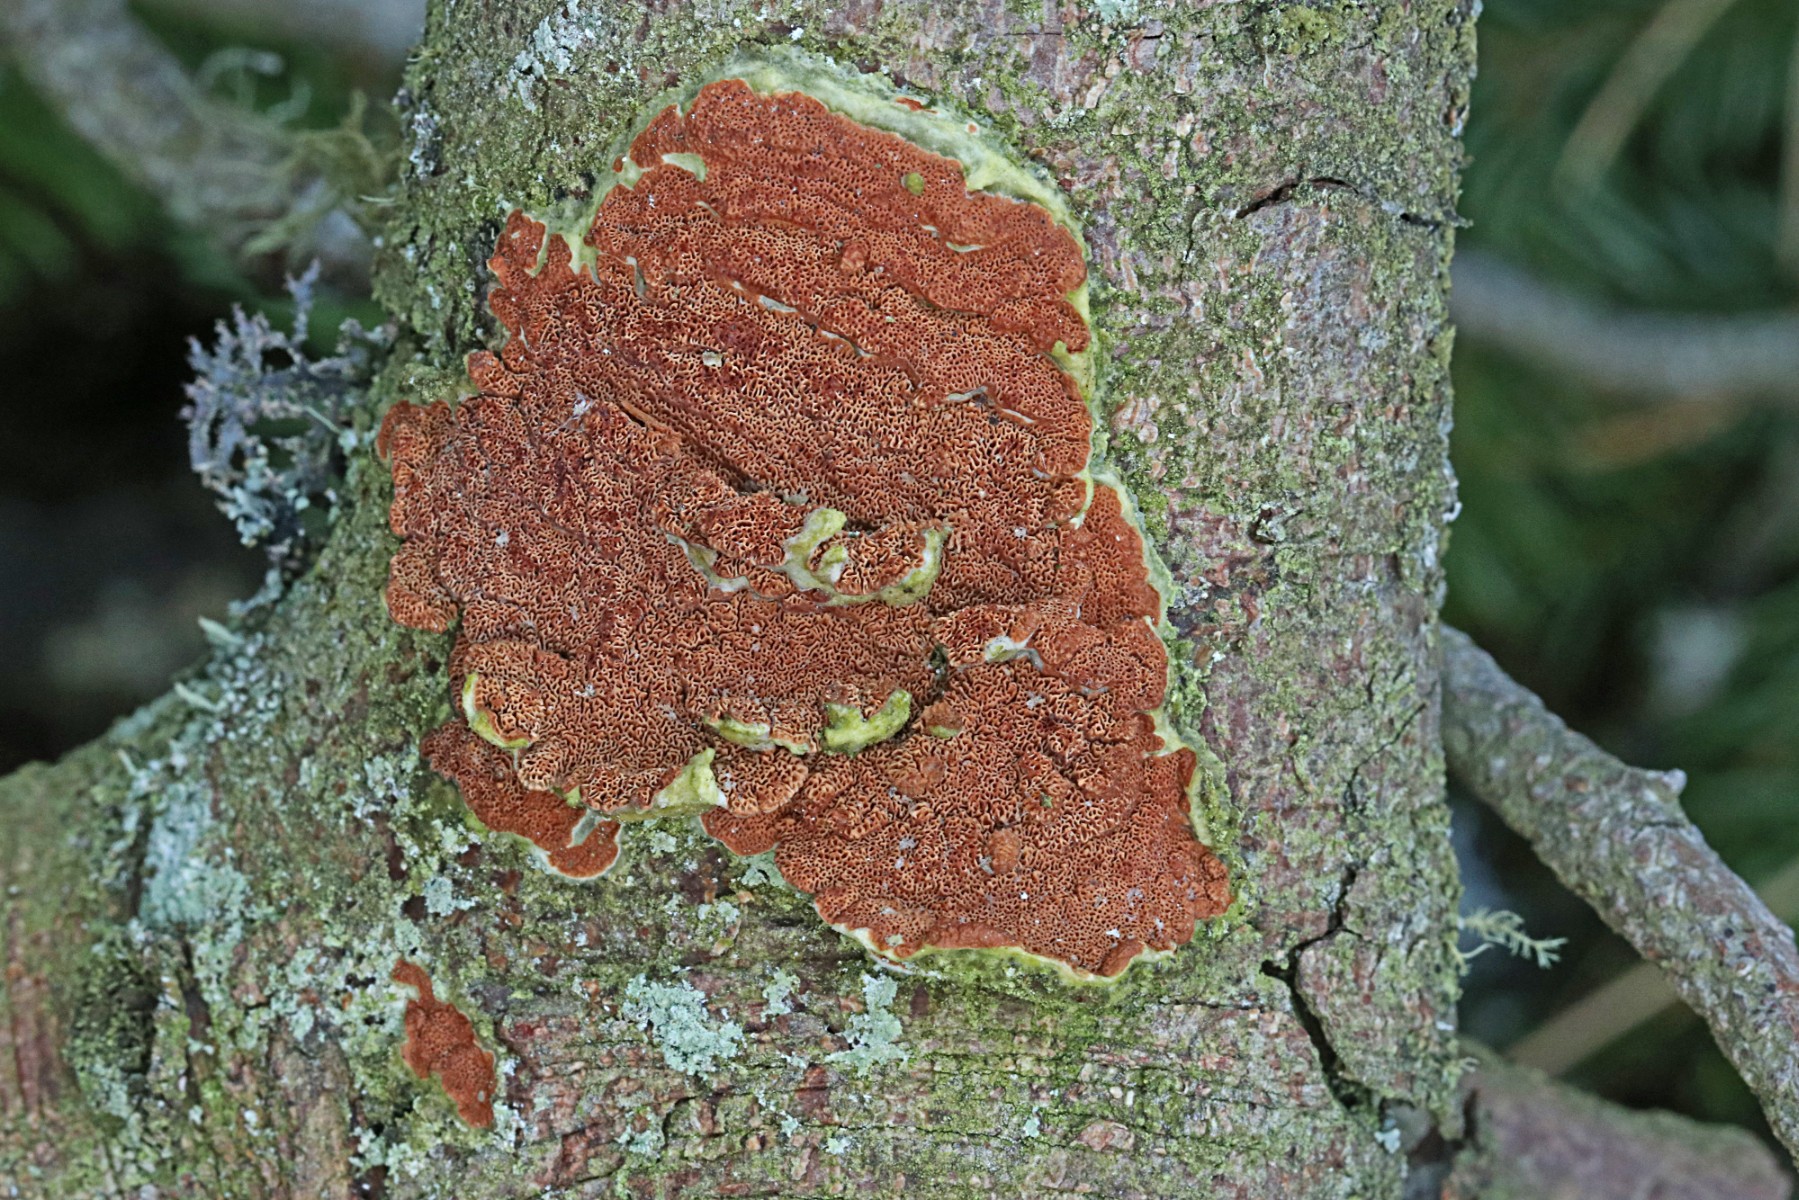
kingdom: Fungi
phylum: Basidiomycota
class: Agaricomycetes
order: Polyporales
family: Irpicaceae
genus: Meruliopsis
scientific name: Meruliopsis taxicola
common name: purpurbrun foldporesvamp
